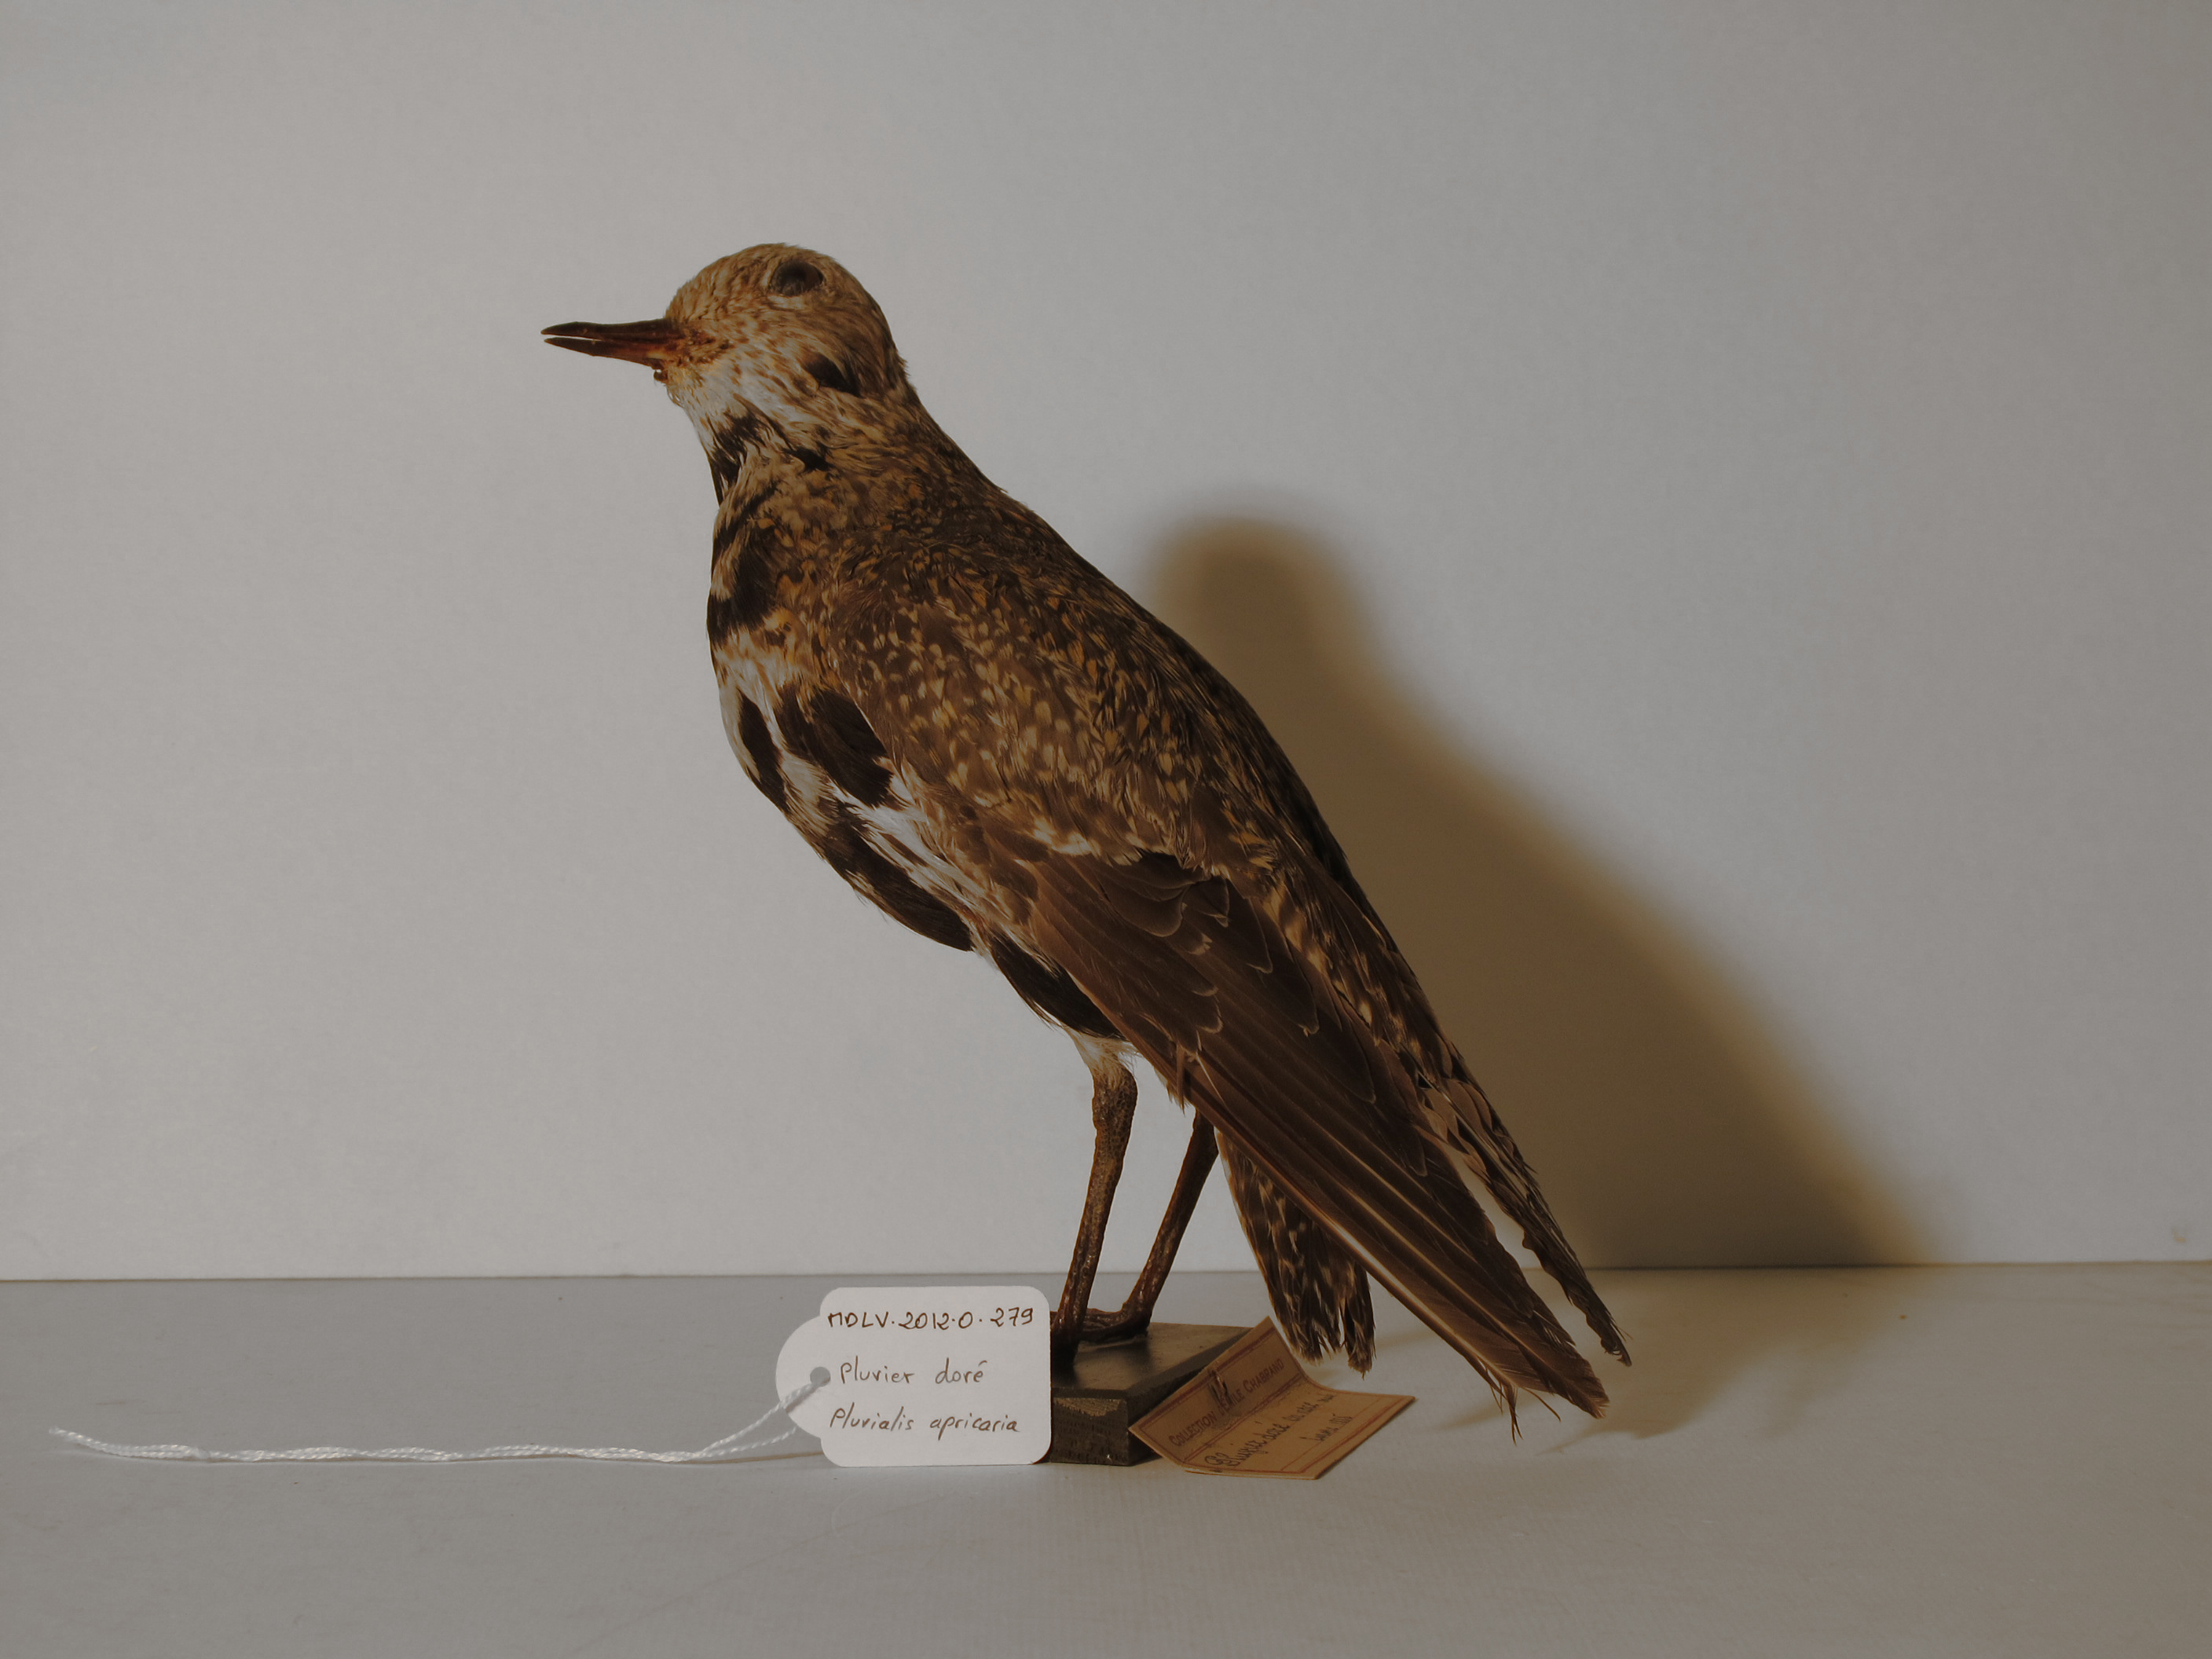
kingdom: Animalia
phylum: Chordata
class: Aves
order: Charadriiformes
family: Charadriidae
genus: Pluvialis
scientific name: Pluvialis apricaria
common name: Eurasian Golden Plover
